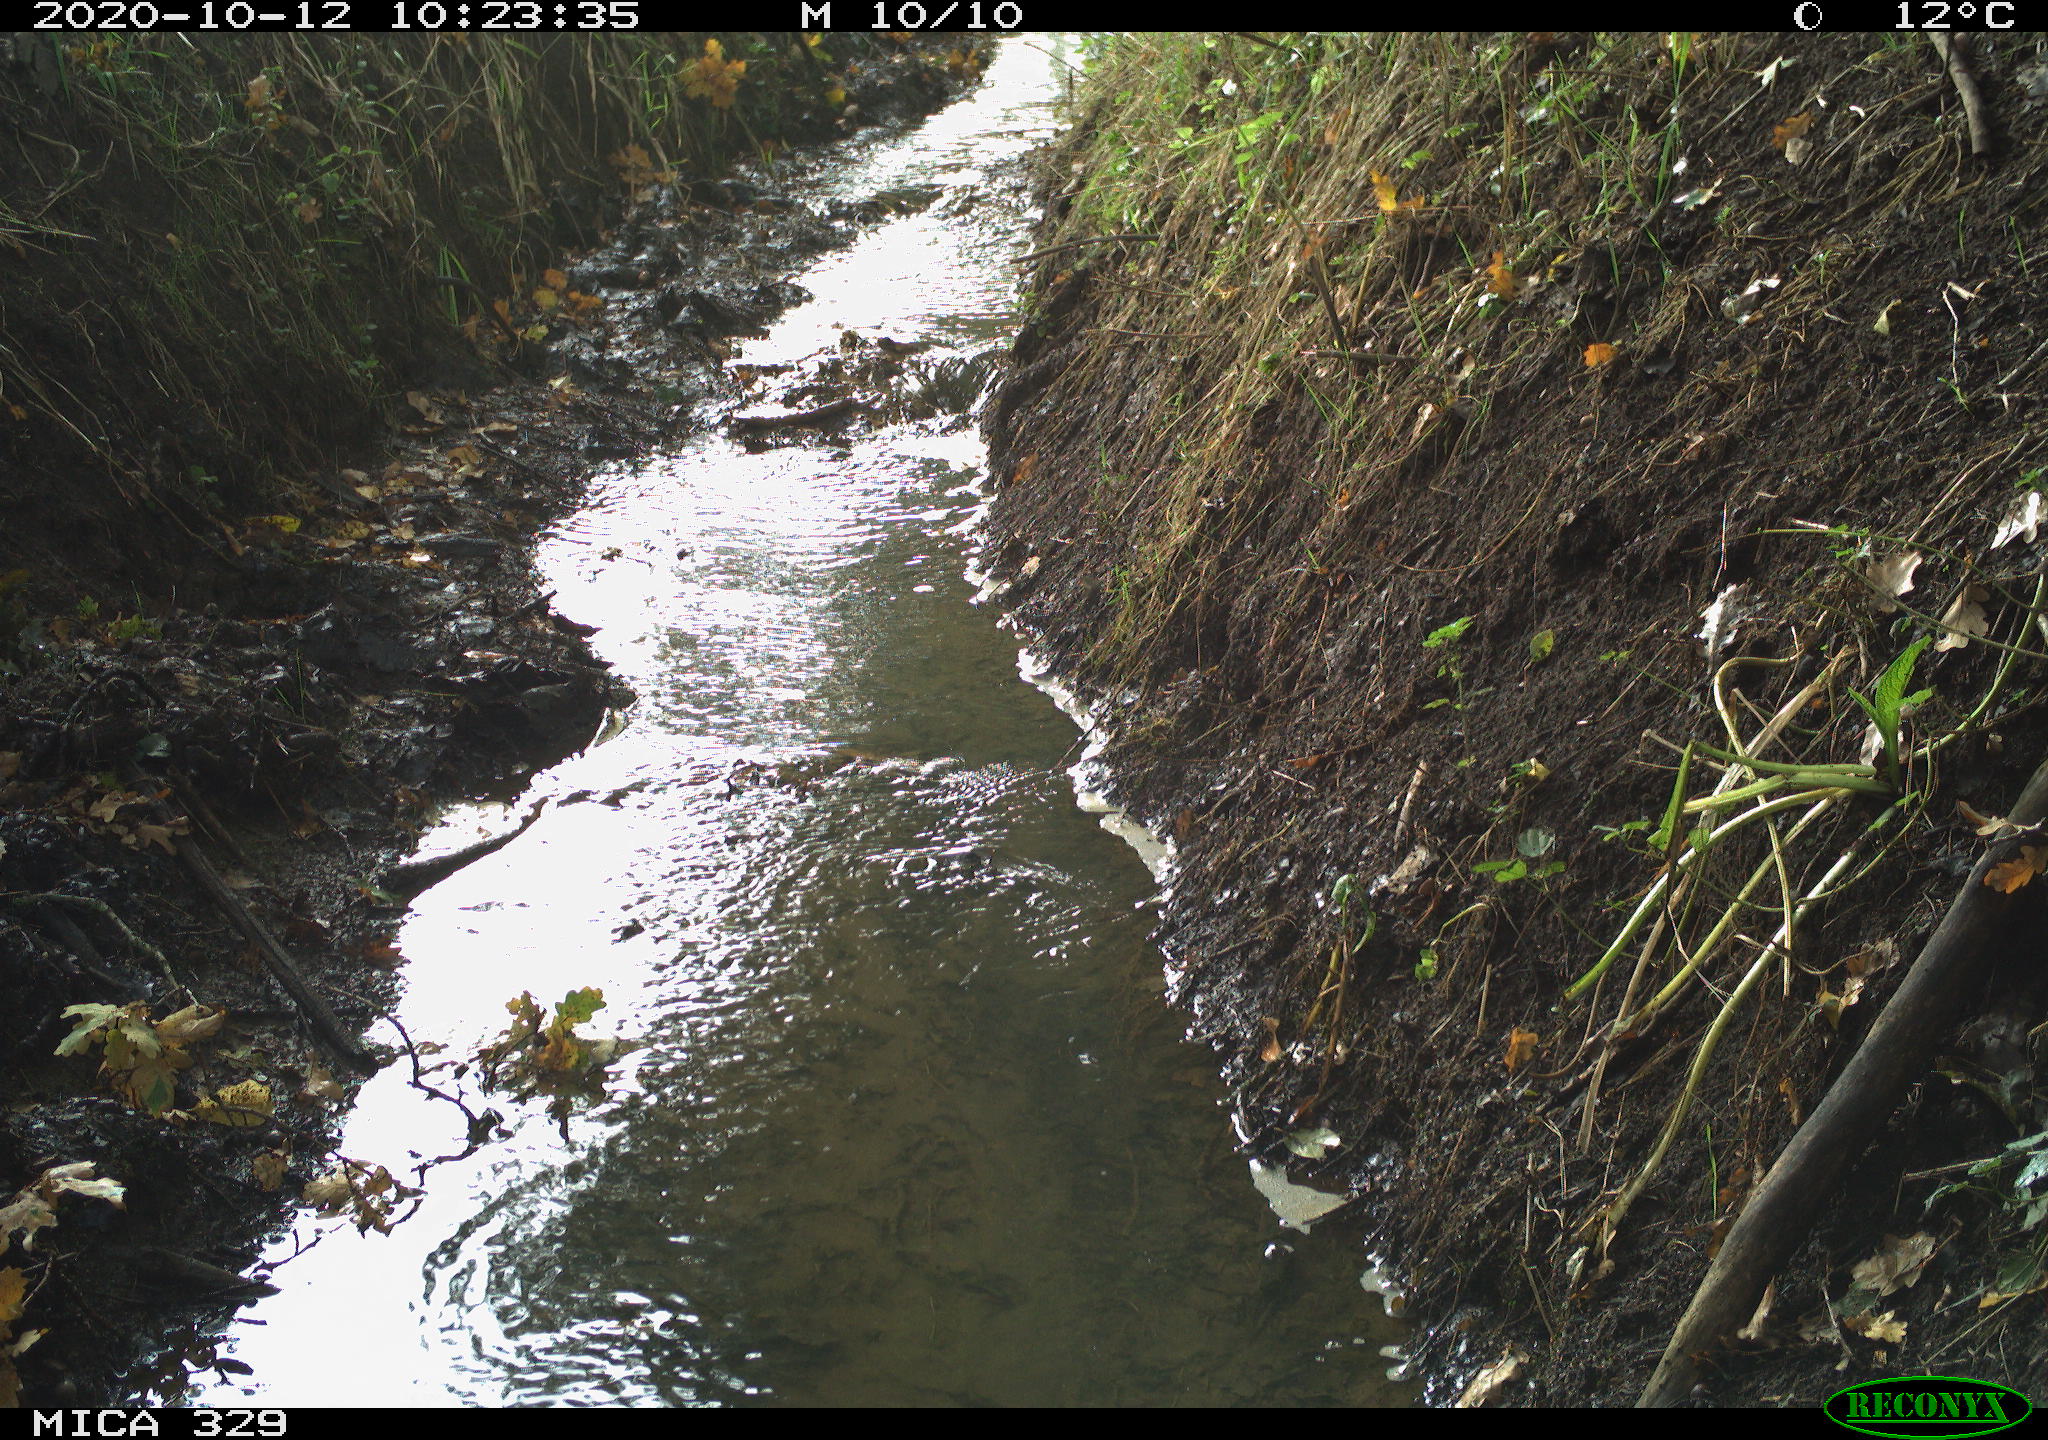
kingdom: Animalia
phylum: Chordata
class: Mammalia
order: Rodentia
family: Sciuridae
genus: Sciurus
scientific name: Sciurus vulgaris
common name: Eurasian red squirrel
